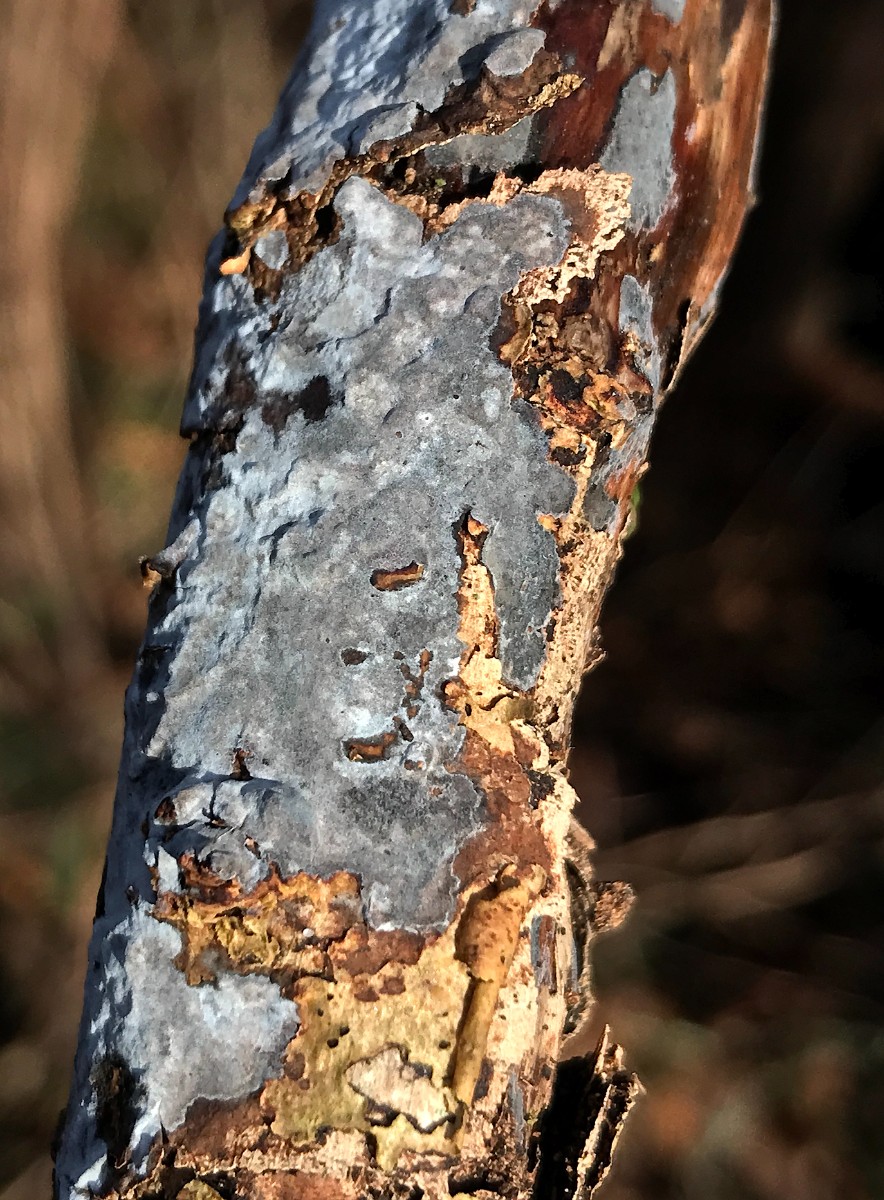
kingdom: Fungi
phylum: Basidiomycota
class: Agaricomycetes
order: Russulales
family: Peniophoraceae
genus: Peniophora
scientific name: Peniophora
